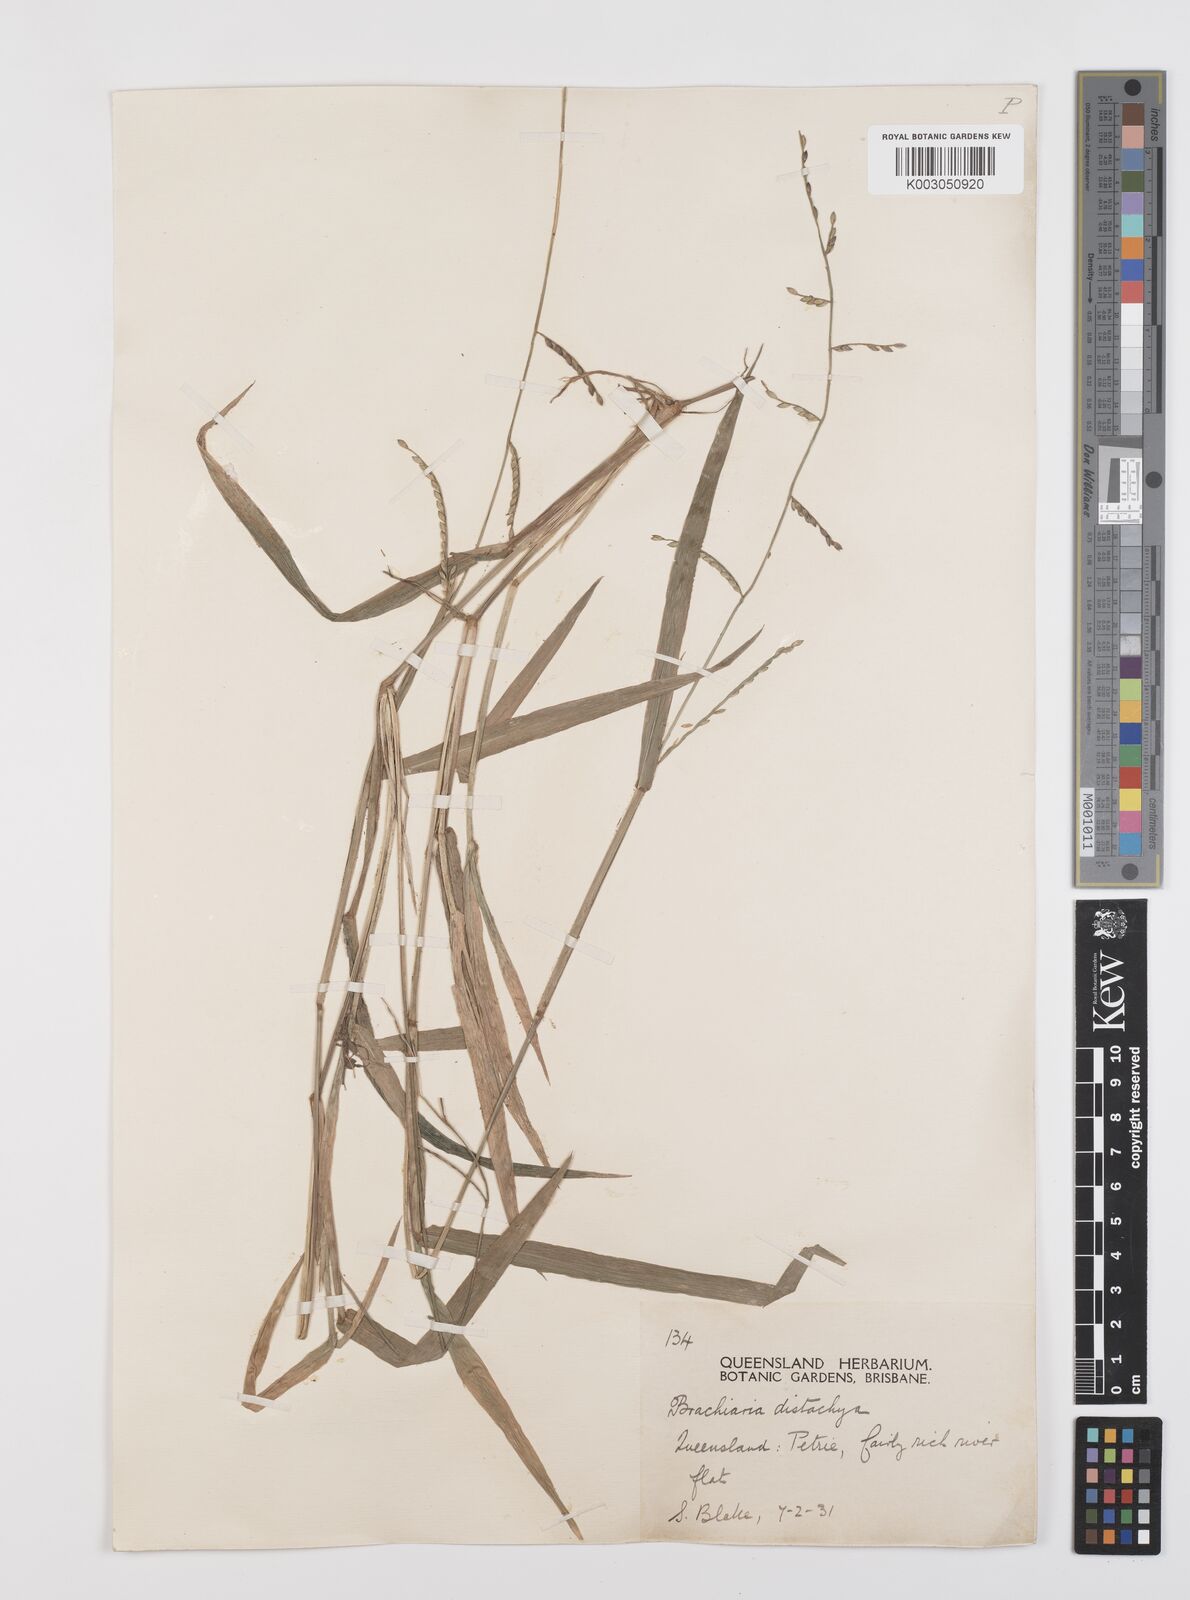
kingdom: Plantae
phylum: Tracheophyta
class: Liliopsida
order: Poales
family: Poaceae
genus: Urochloa
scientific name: Urochloa subquadripara
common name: Armgrass millet
